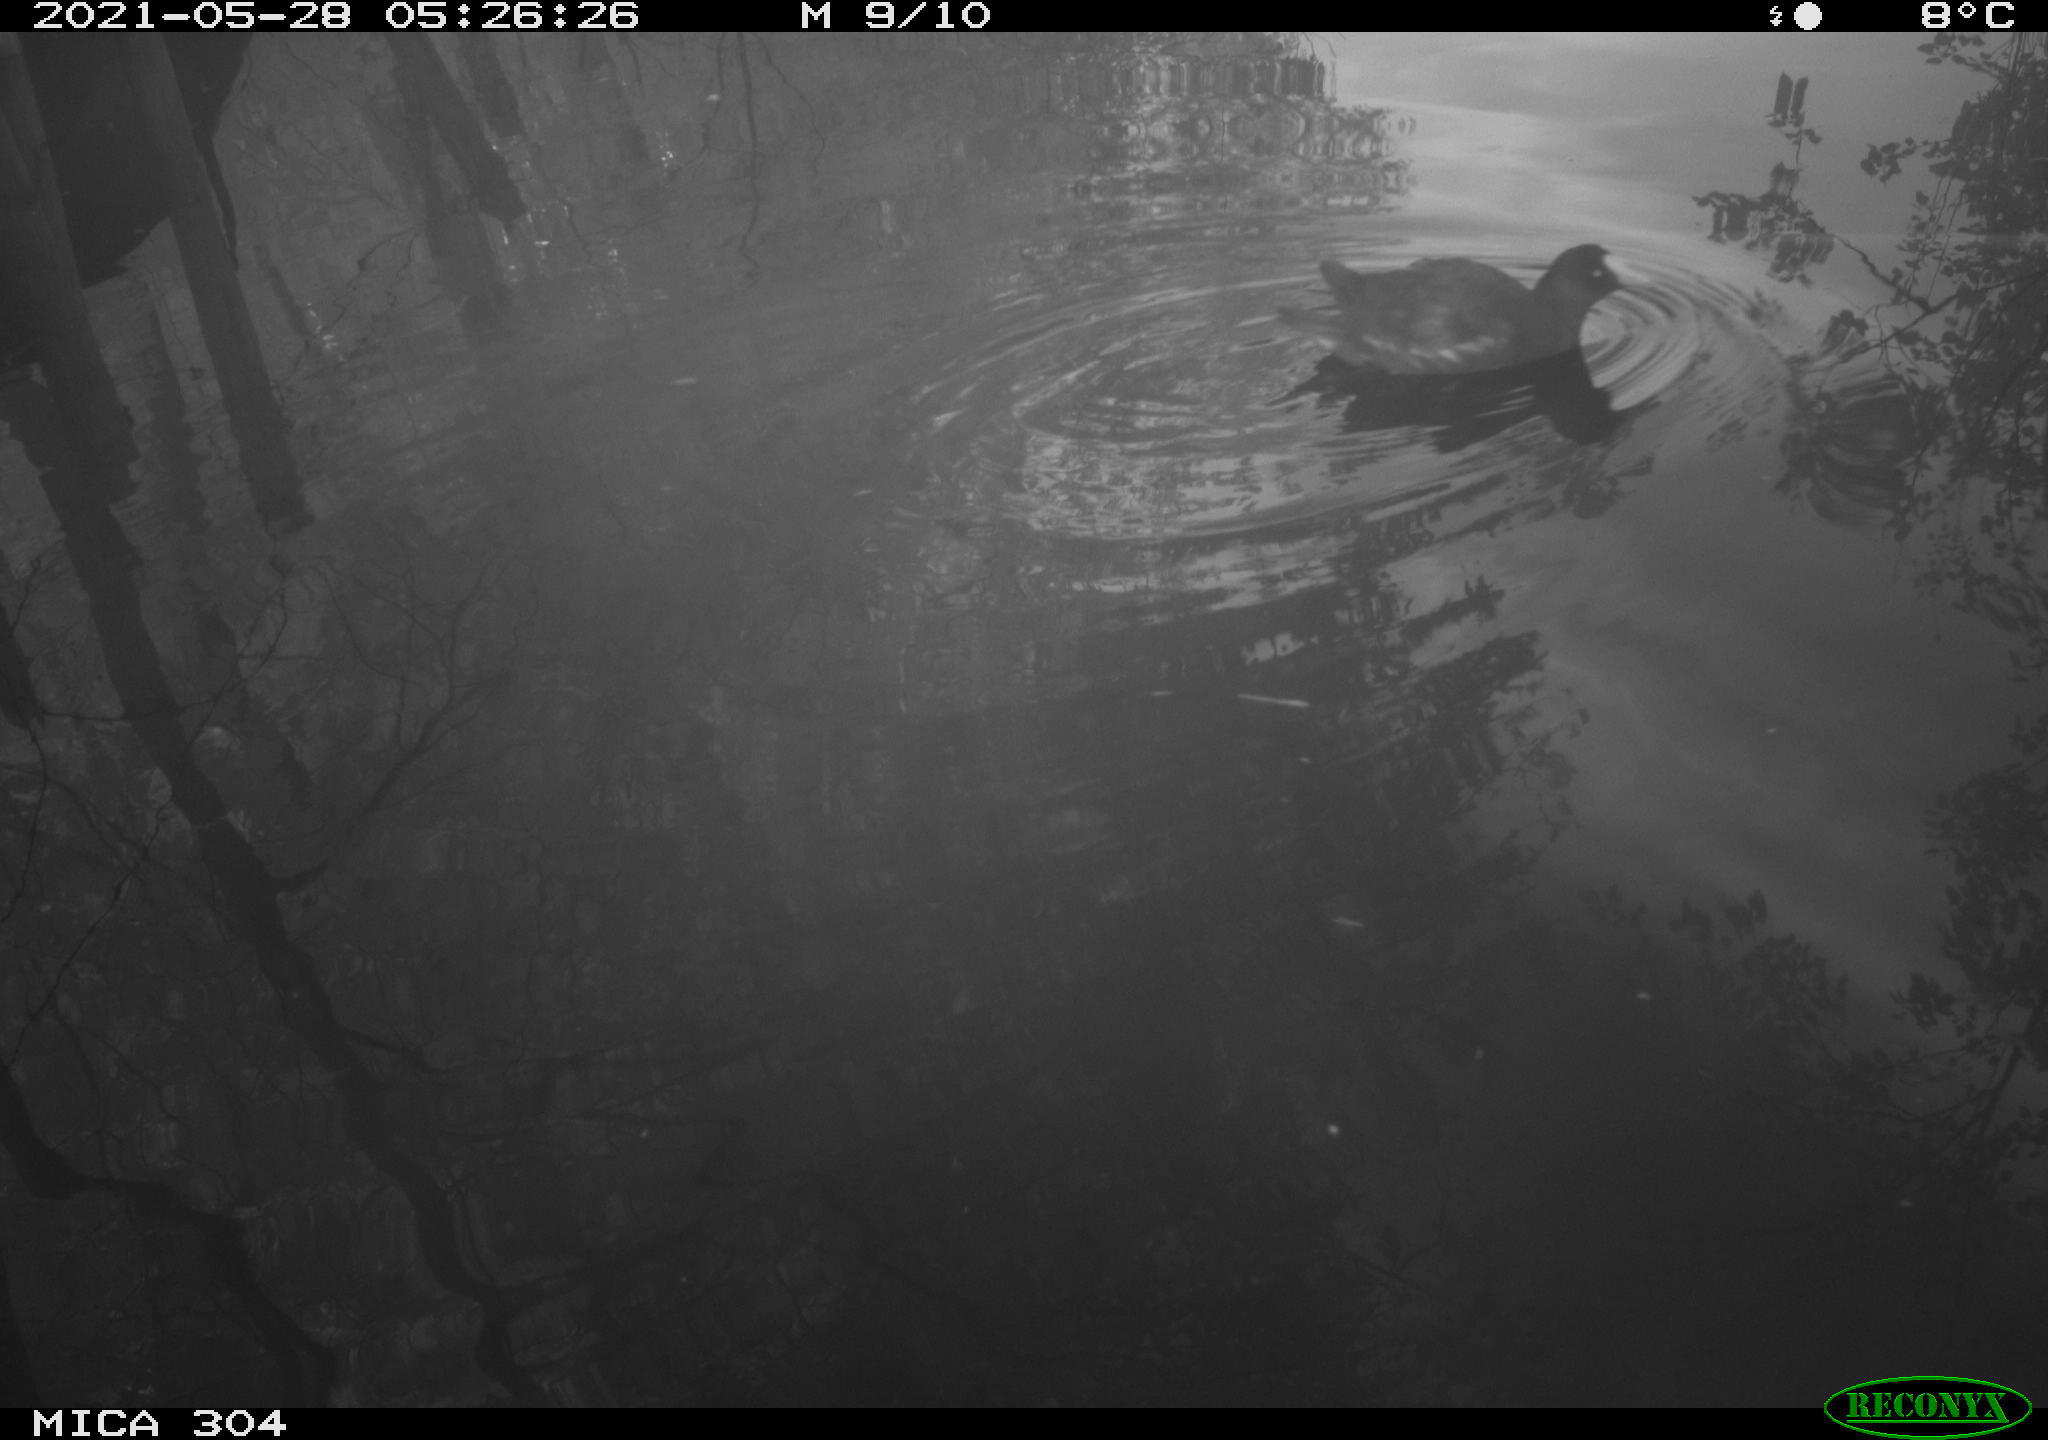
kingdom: Animalia
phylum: Chordata
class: Aves
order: Gruiformes
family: Rallidae
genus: Gallinula
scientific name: Gallinula chloropus
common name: Common moorhen
